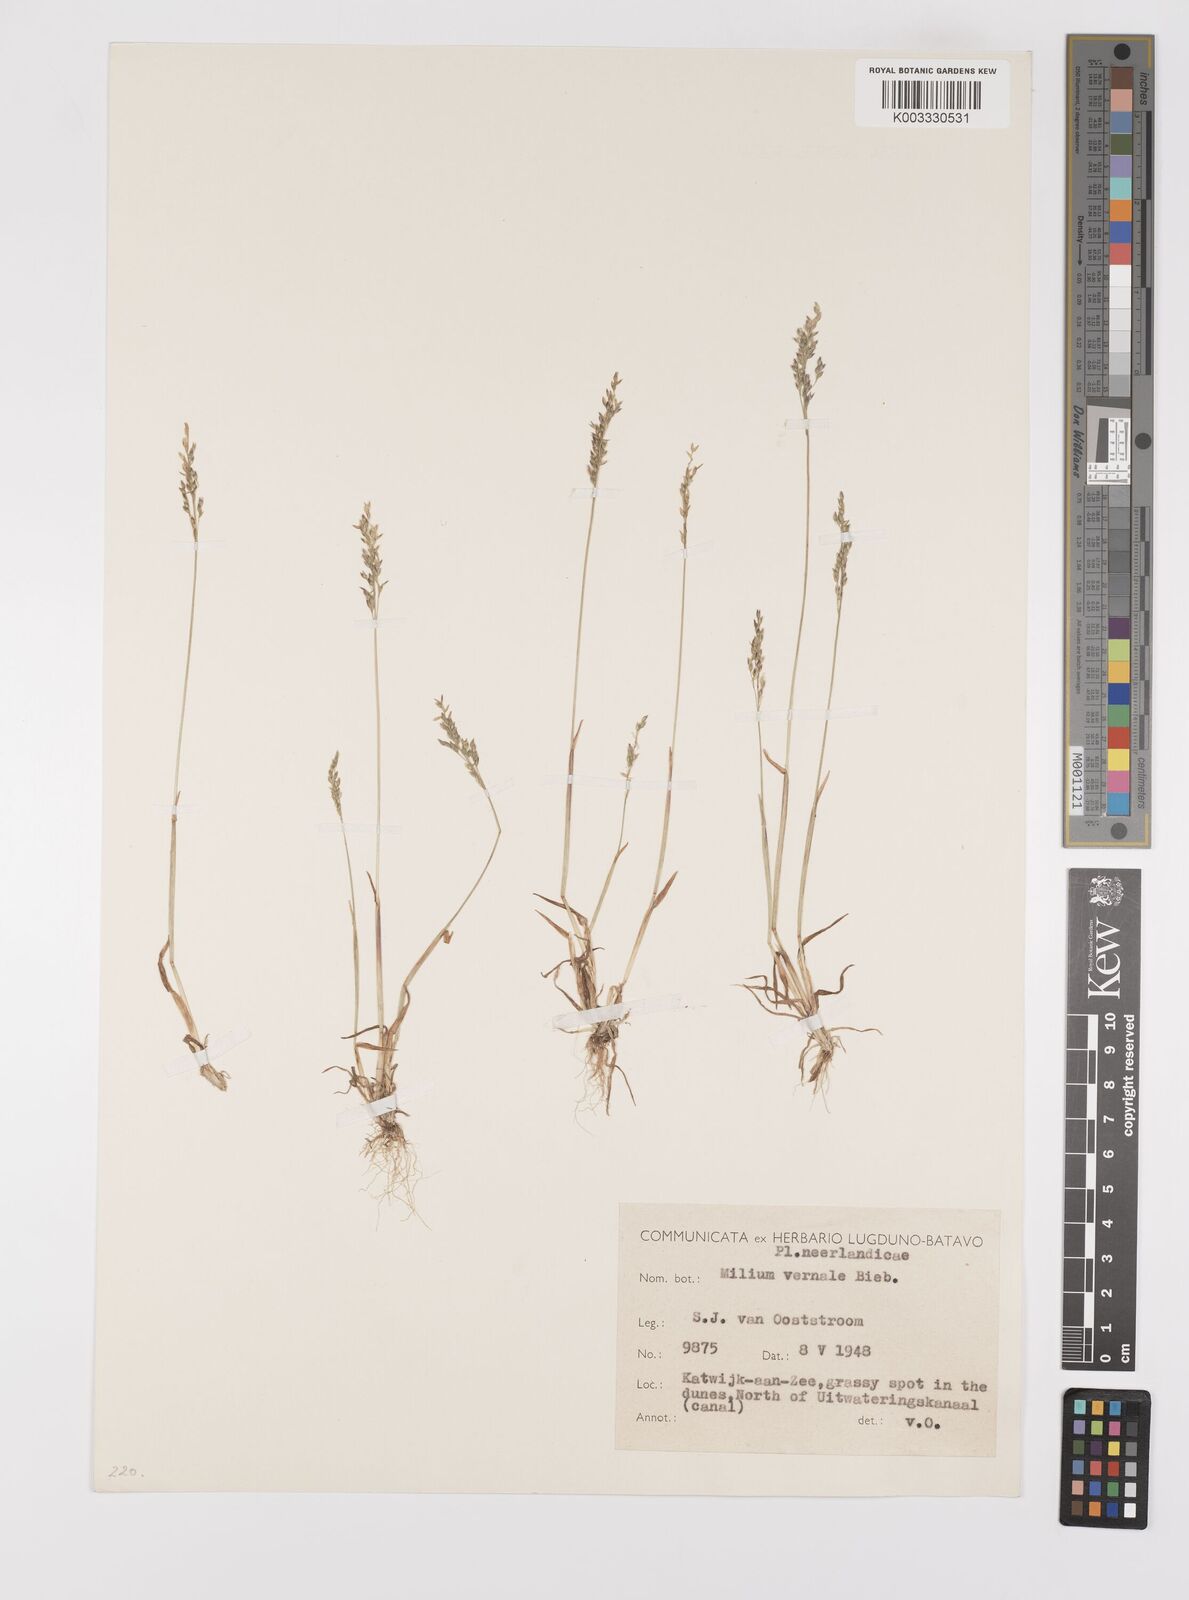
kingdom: Plantae
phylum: Tracheophyta
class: Liliopsida
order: Poales
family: Poaceae
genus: Milium
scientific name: Milium vernale
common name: Early millet
